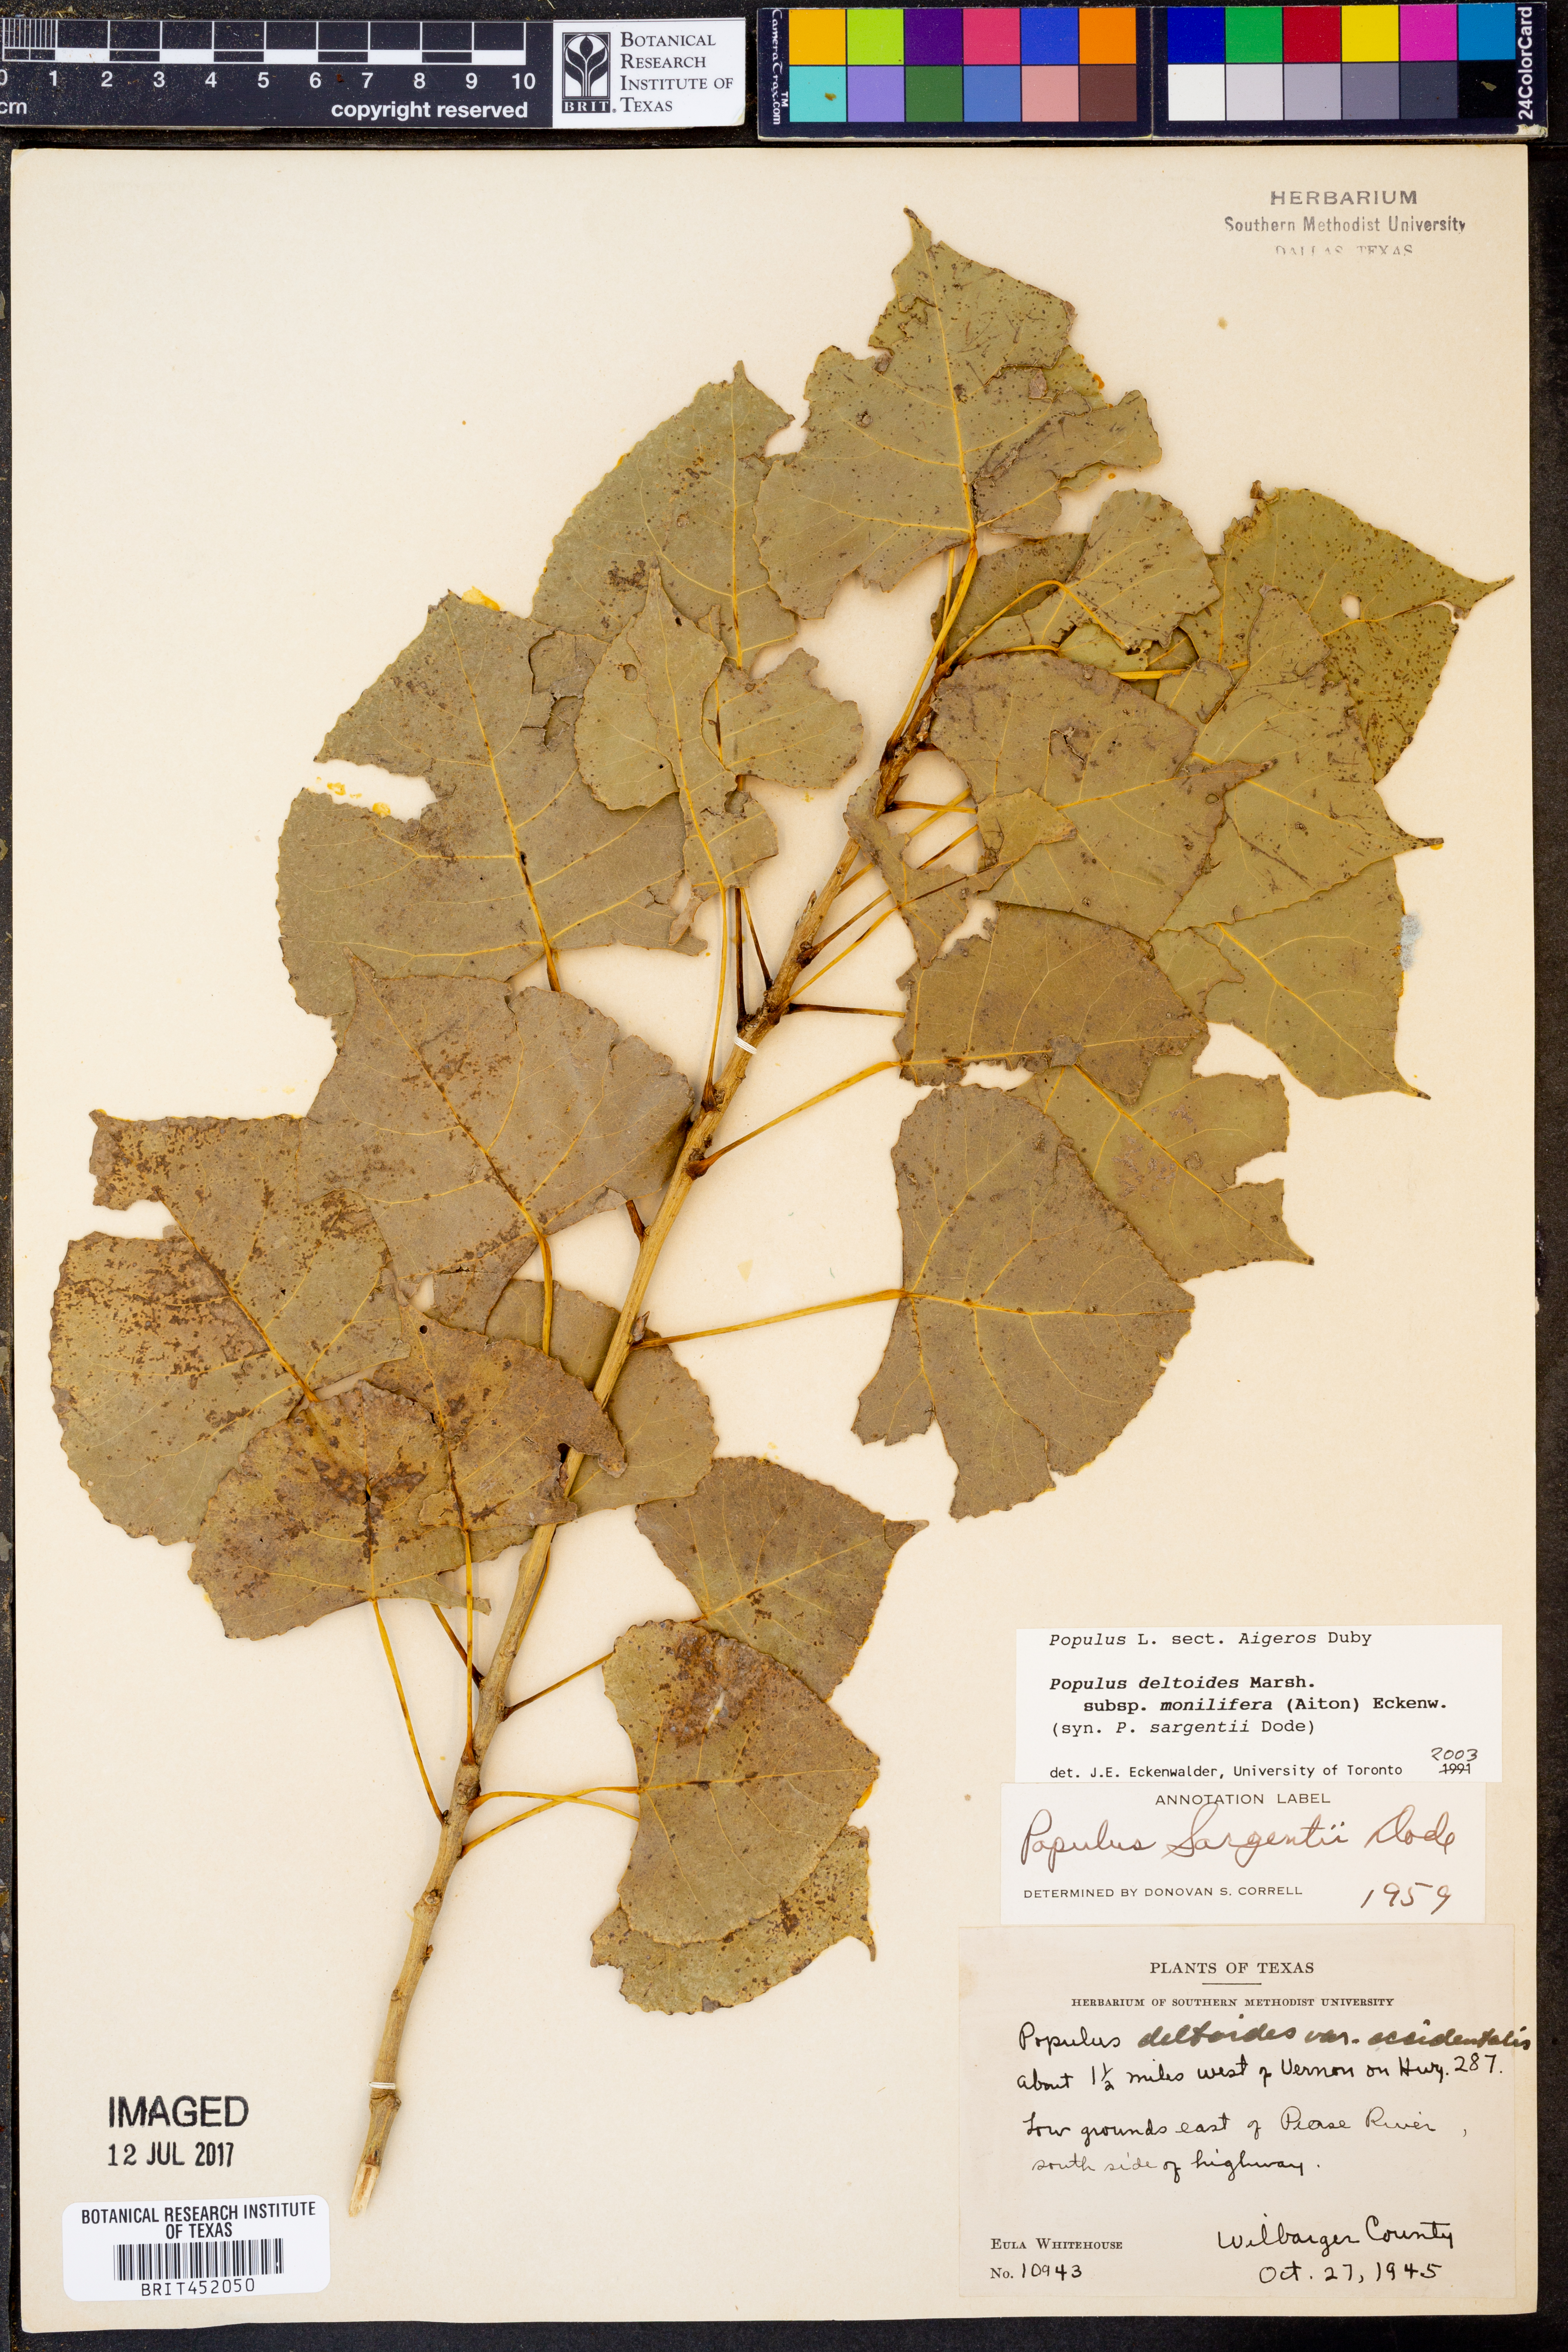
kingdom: Plantae
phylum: Tracheophyta
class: Magnoliopsida
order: Malpighiales
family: Salicaceae
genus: Populus
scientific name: Populus deltoides
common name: Eastern cottonwood
